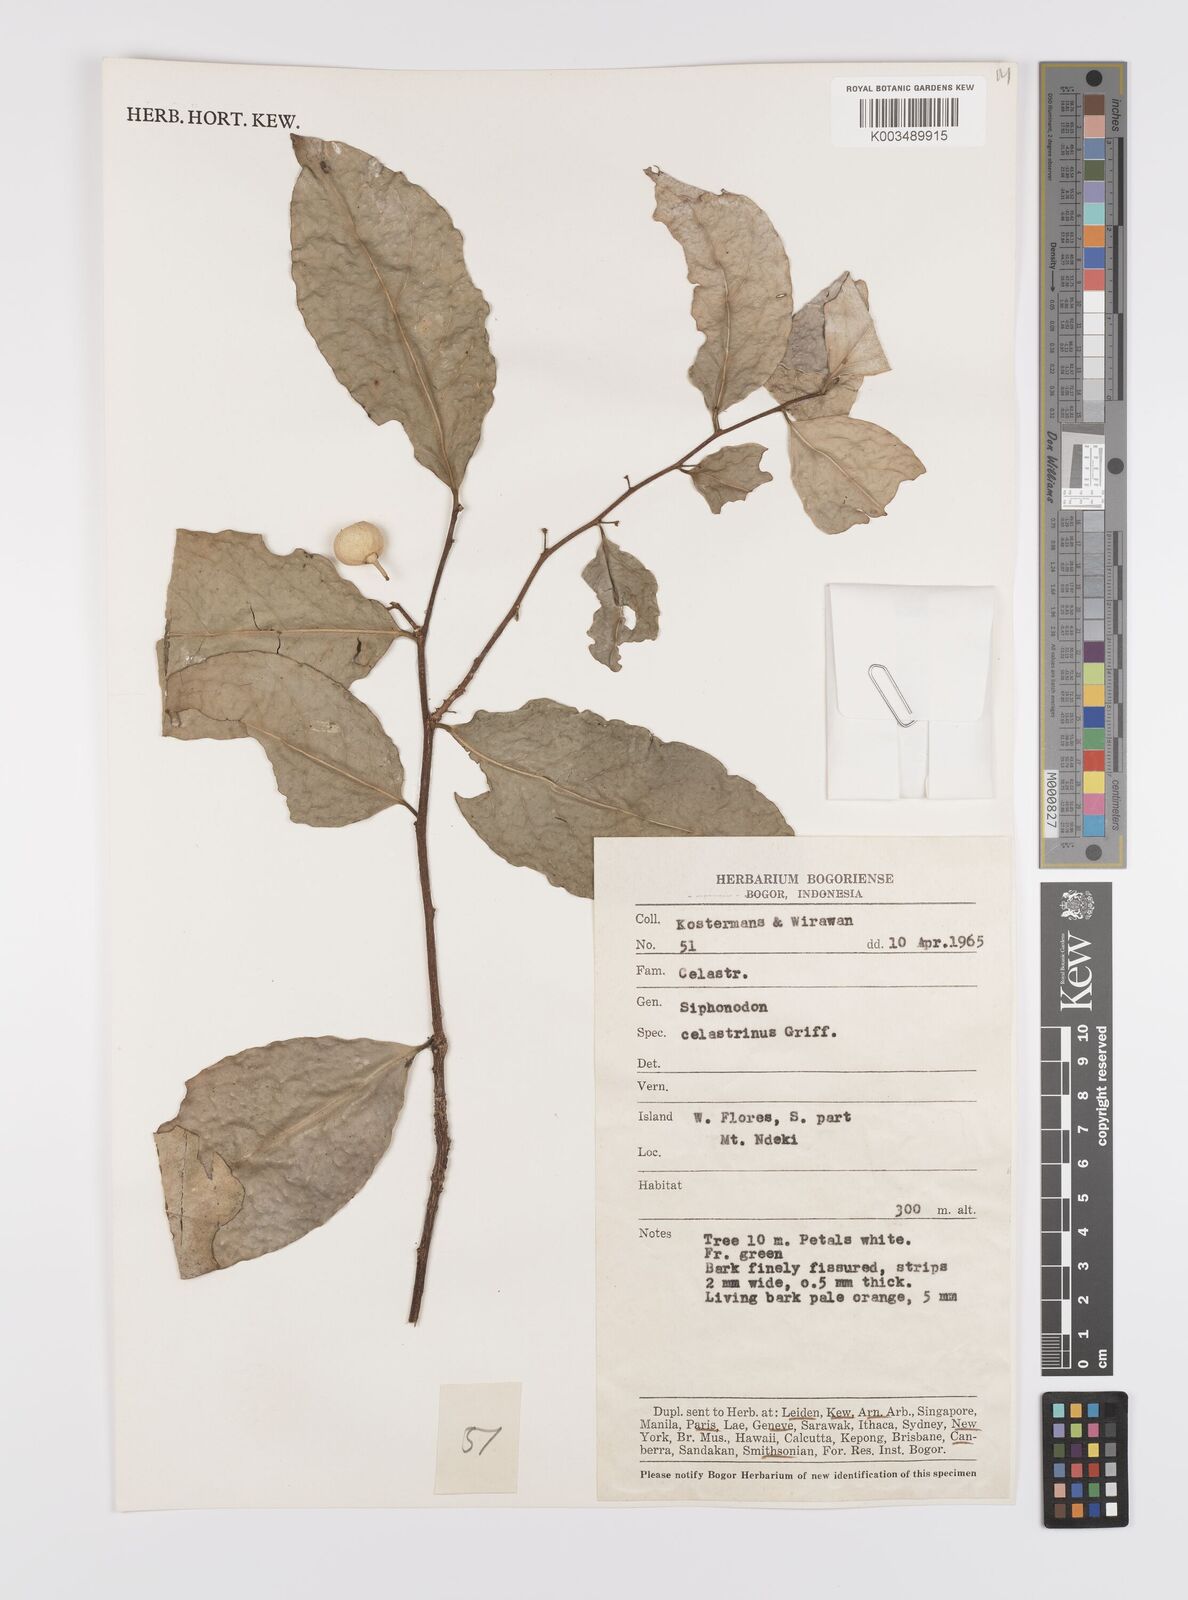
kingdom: Plantae
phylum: Tracheophyta
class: Magnoliopsida
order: Celastrales
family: Celastraceae
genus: Siphonodon
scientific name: Siphonodon celastrineus
